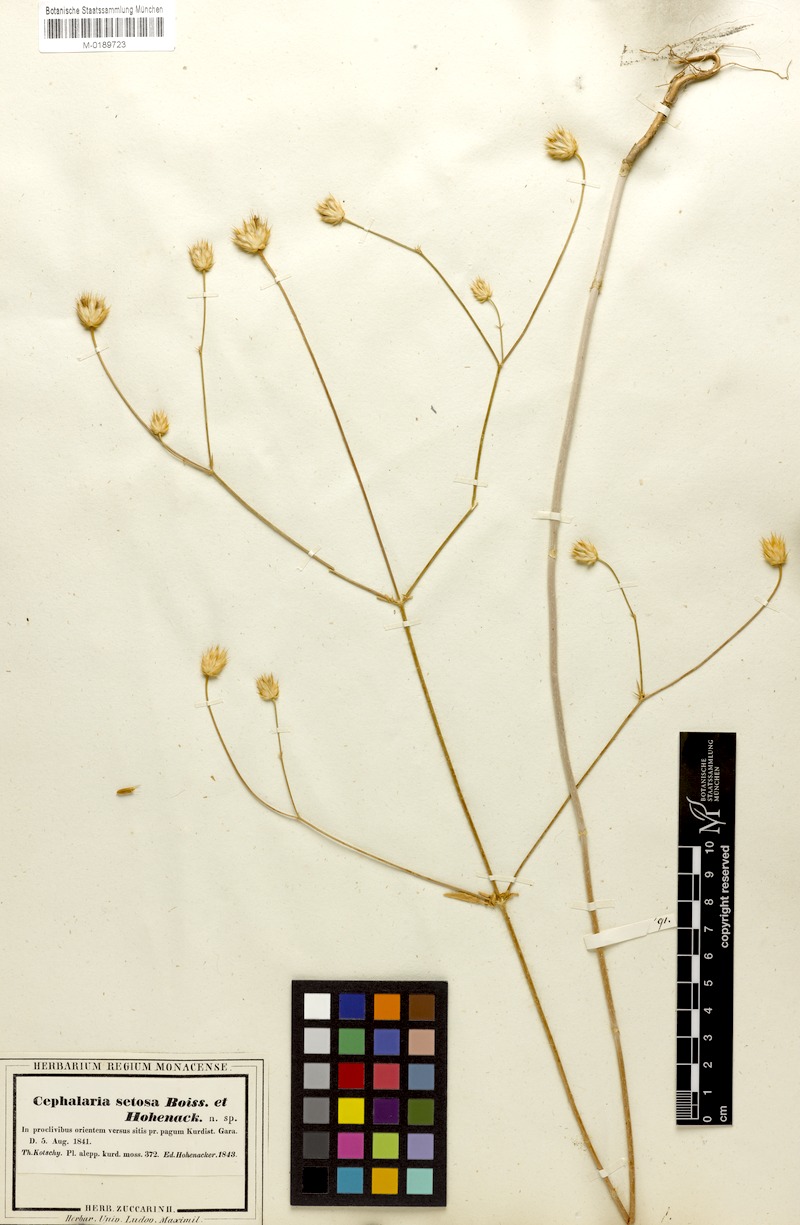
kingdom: Plantae
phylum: Tracheophyta
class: Magnoliopsida
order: Dipsacales
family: Caprifoliaceae
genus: Cephalaria
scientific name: Cephalaria setosa
